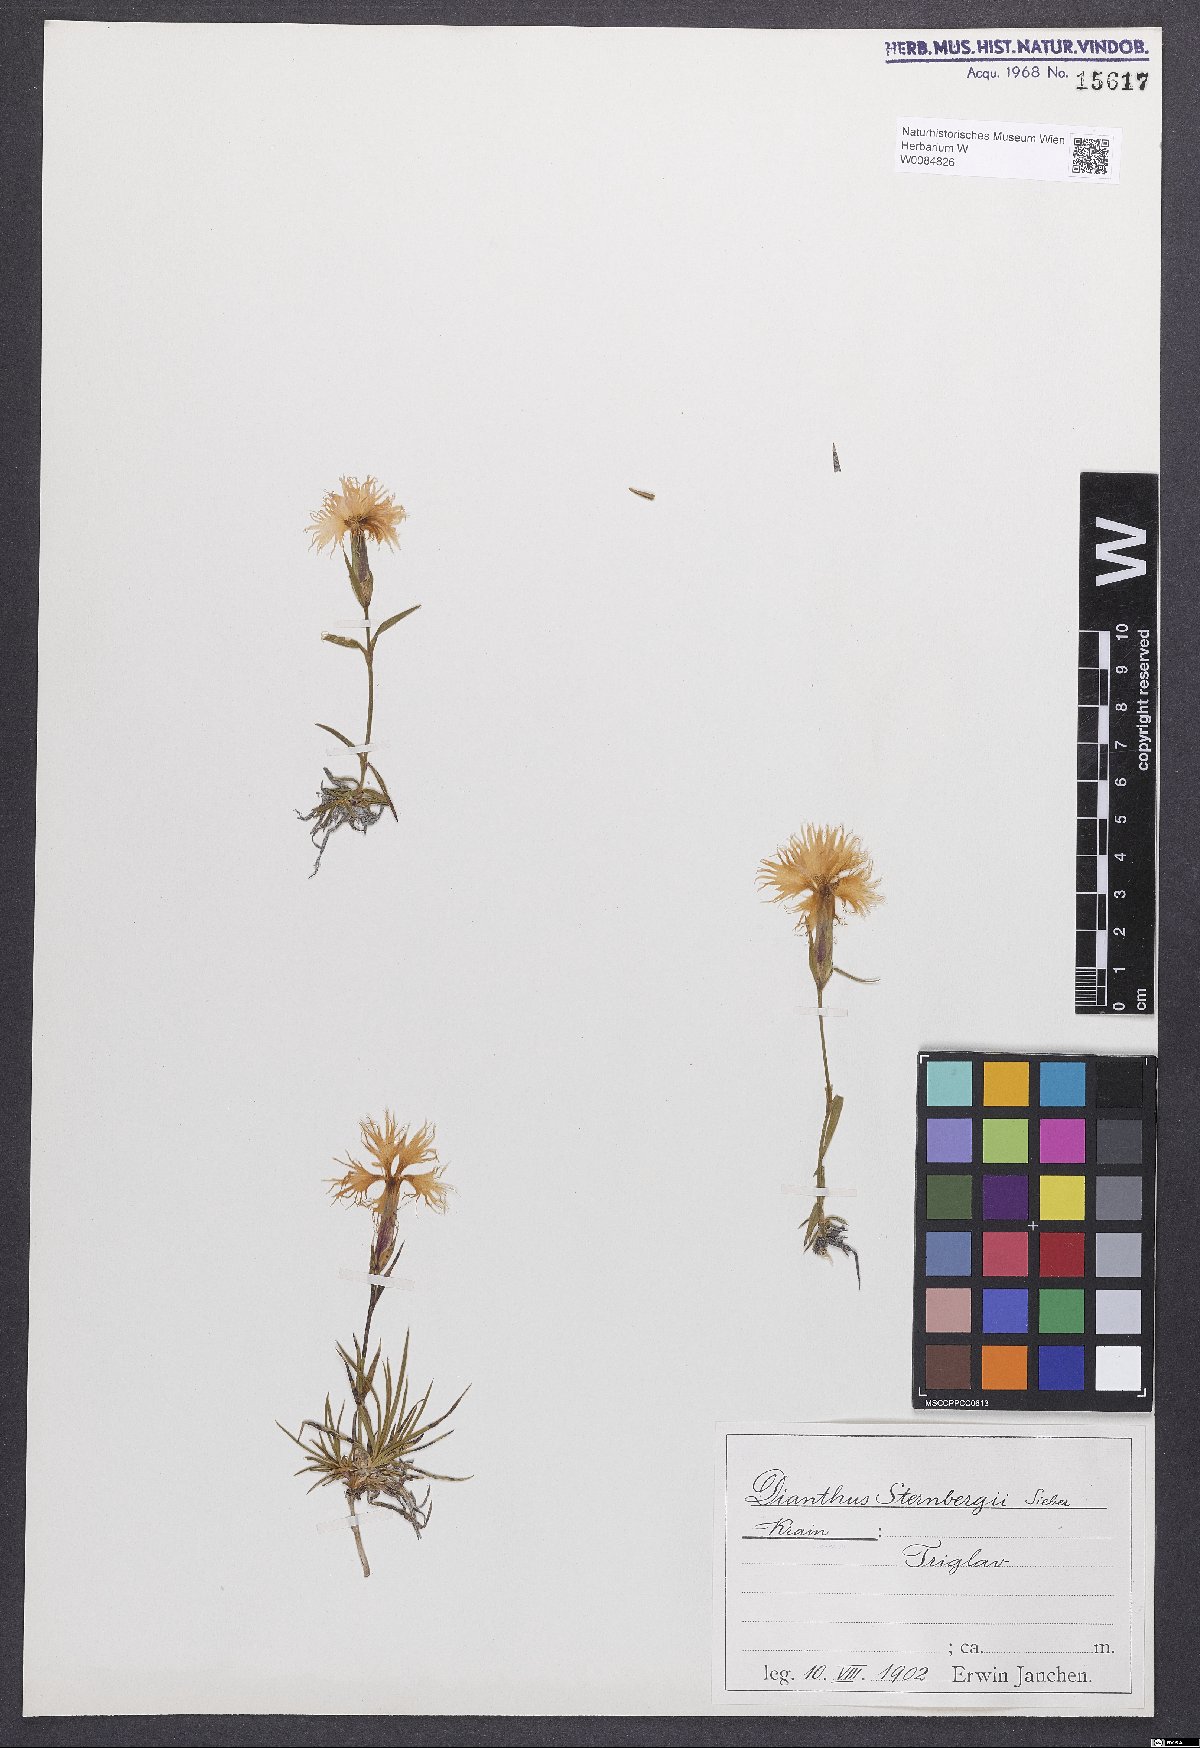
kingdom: Plantae
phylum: Tracheophyta
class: Magnoliopsida
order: Caryophyllales
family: Caryophyllaceae
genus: Dianthus
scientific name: Dianthus monspessulanus
